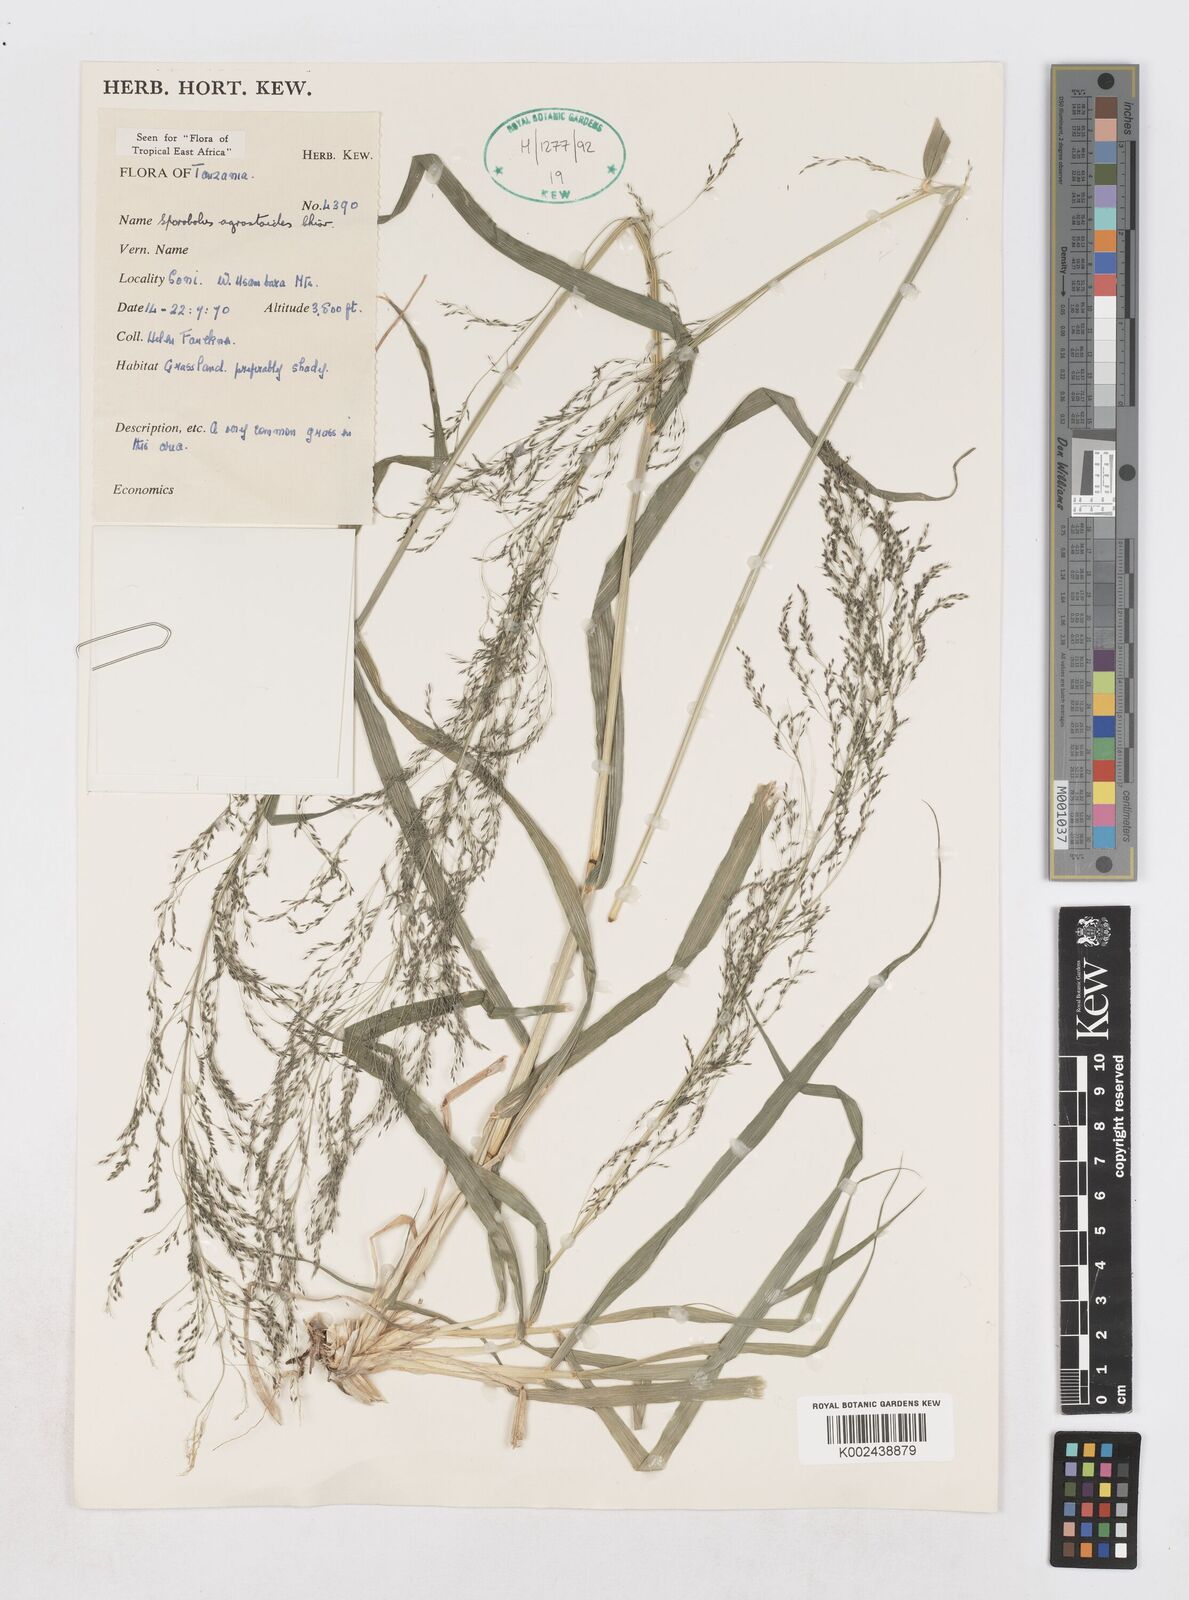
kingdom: Plantae
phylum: Tracheophyta
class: Liliopsida
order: Poales
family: Poaceae
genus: Sporobolus
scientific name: Sporobolus agrostoides
